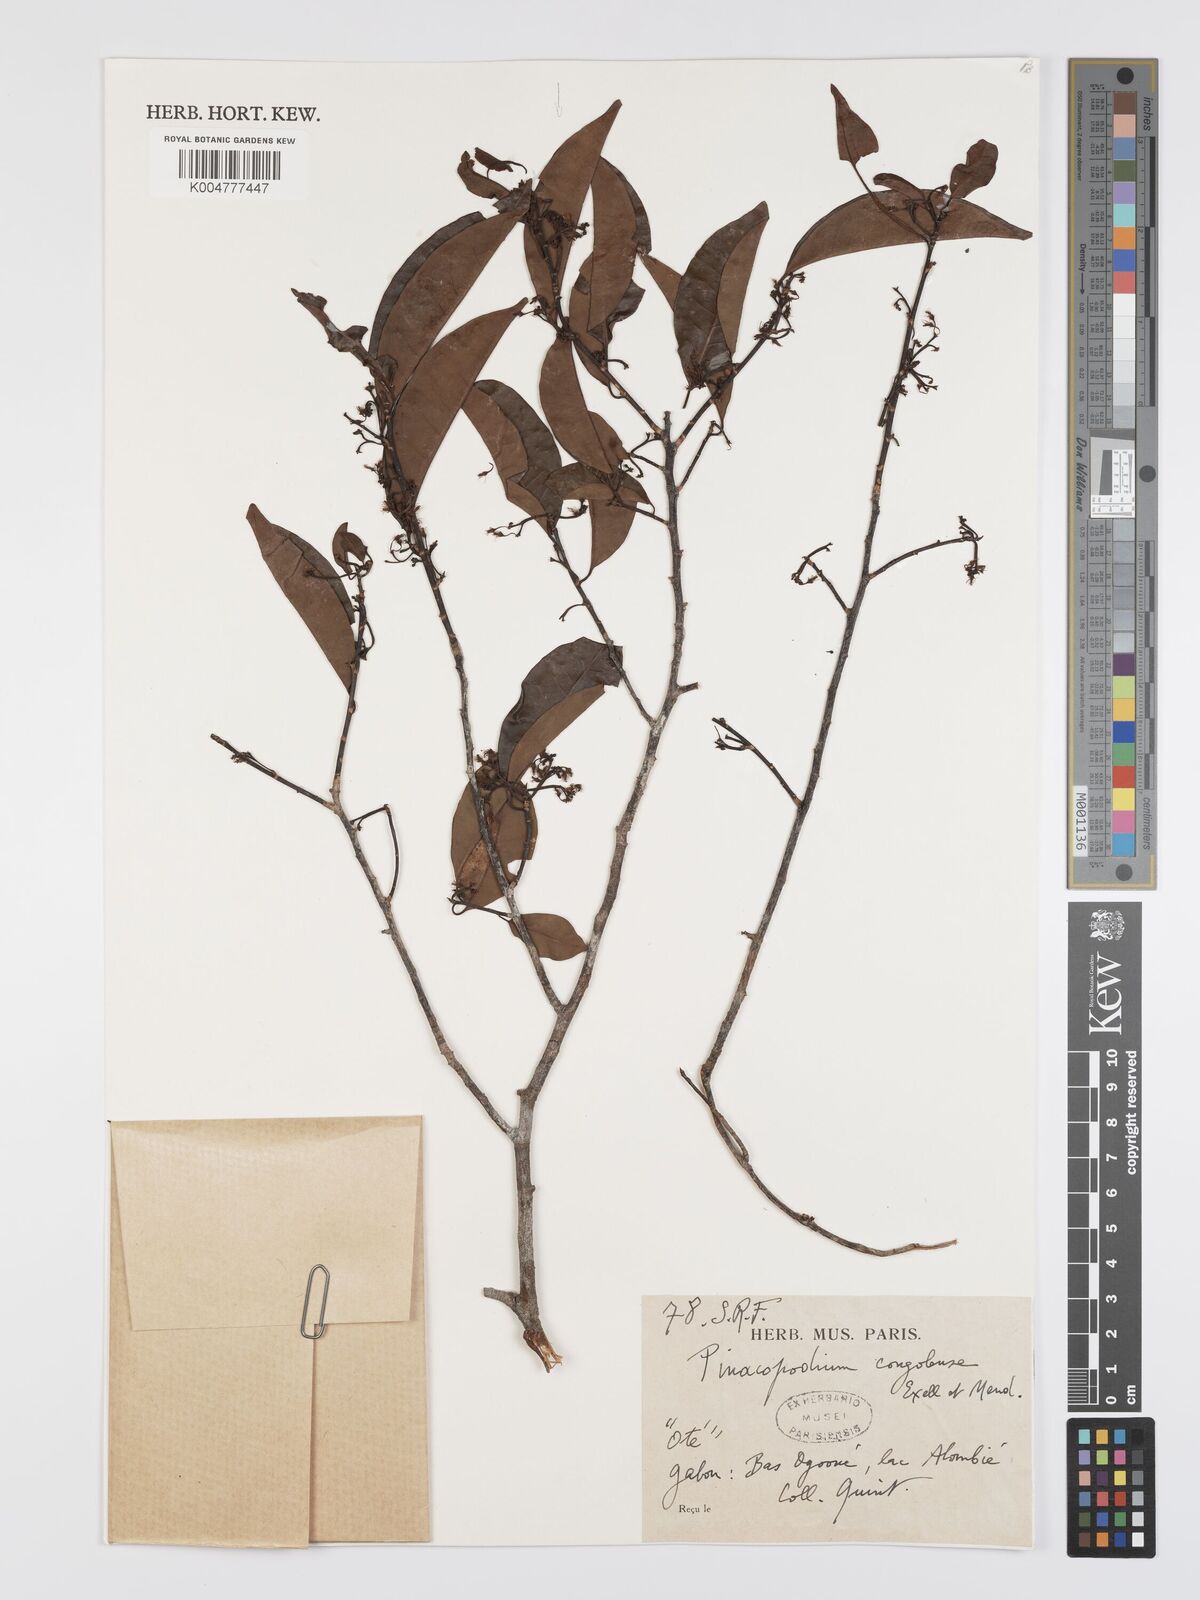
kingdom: Plantae
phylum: Tracheophyta
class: Magnoliopsida
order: Malpighiales
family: Erythroxylaceae
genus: Pinacopodium
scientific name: Pinacopodium congolense
